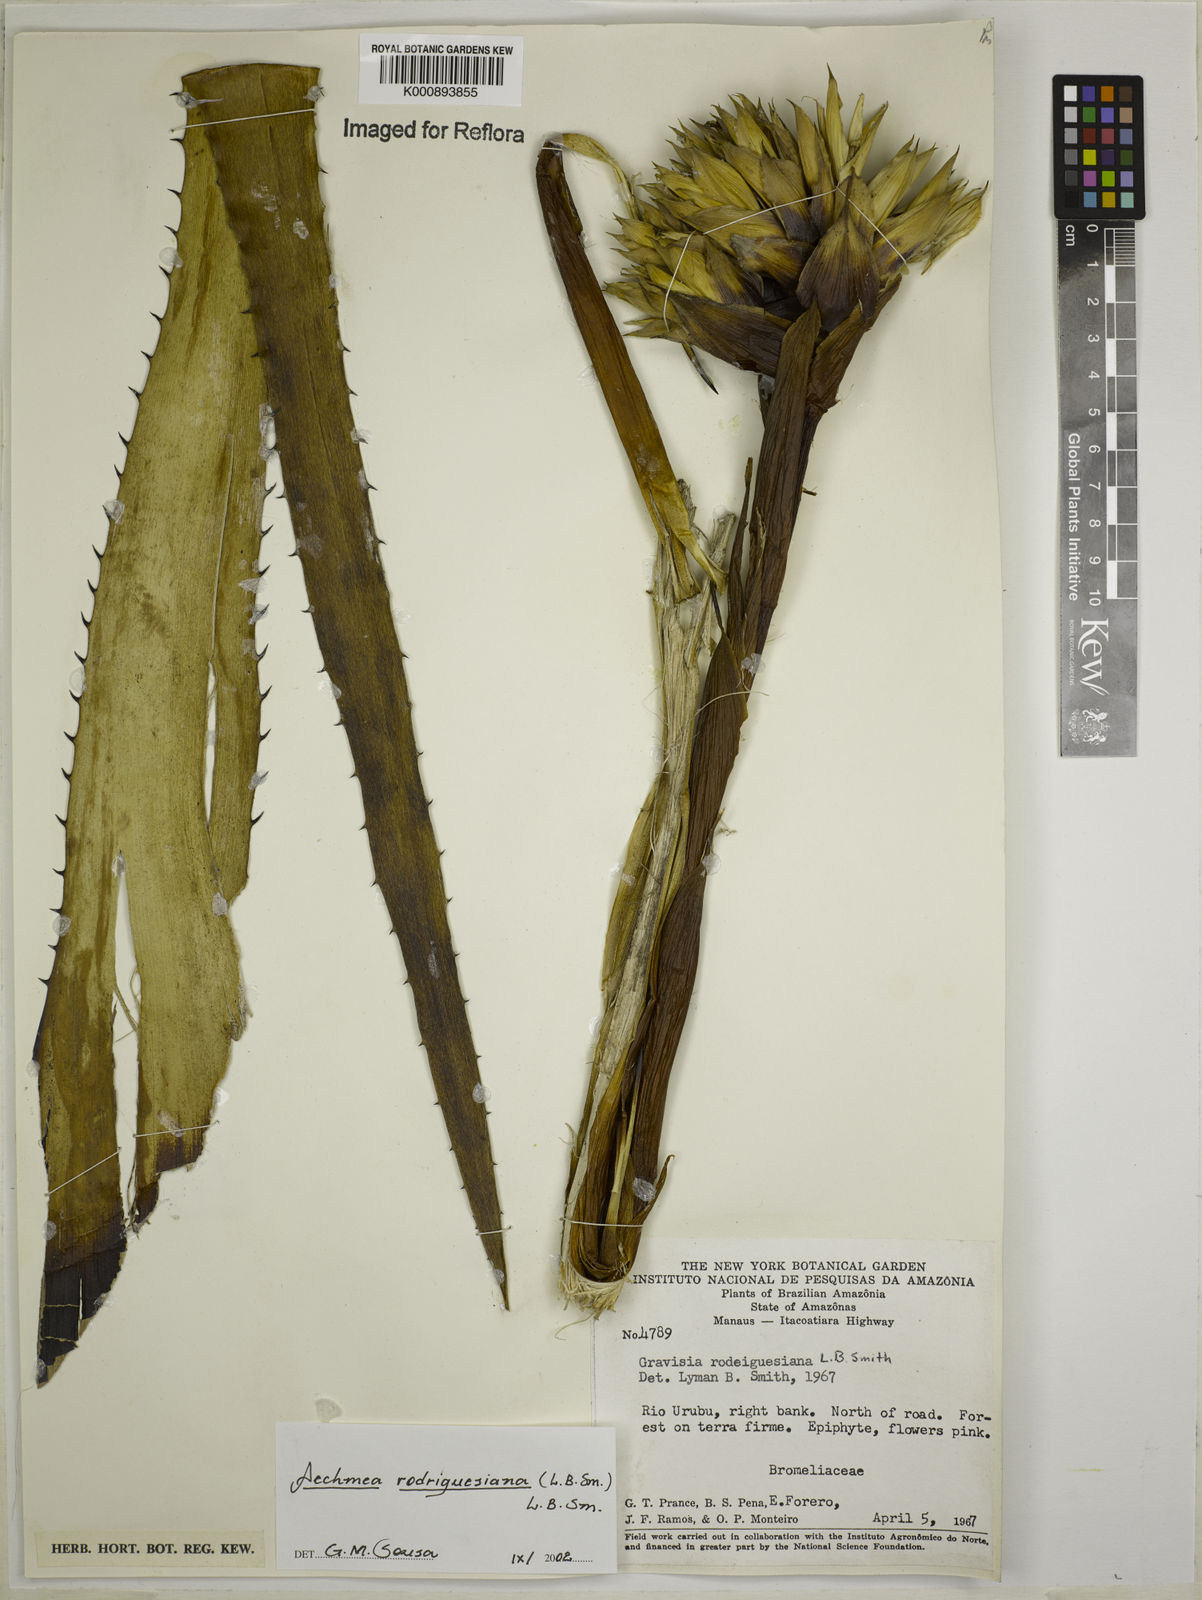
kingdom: Plantae
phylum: Tracheophyta
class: Liliopsida
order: Poales
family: Bromeliaceae
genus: Aechmea
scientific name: Aechmea rodriguesiana
